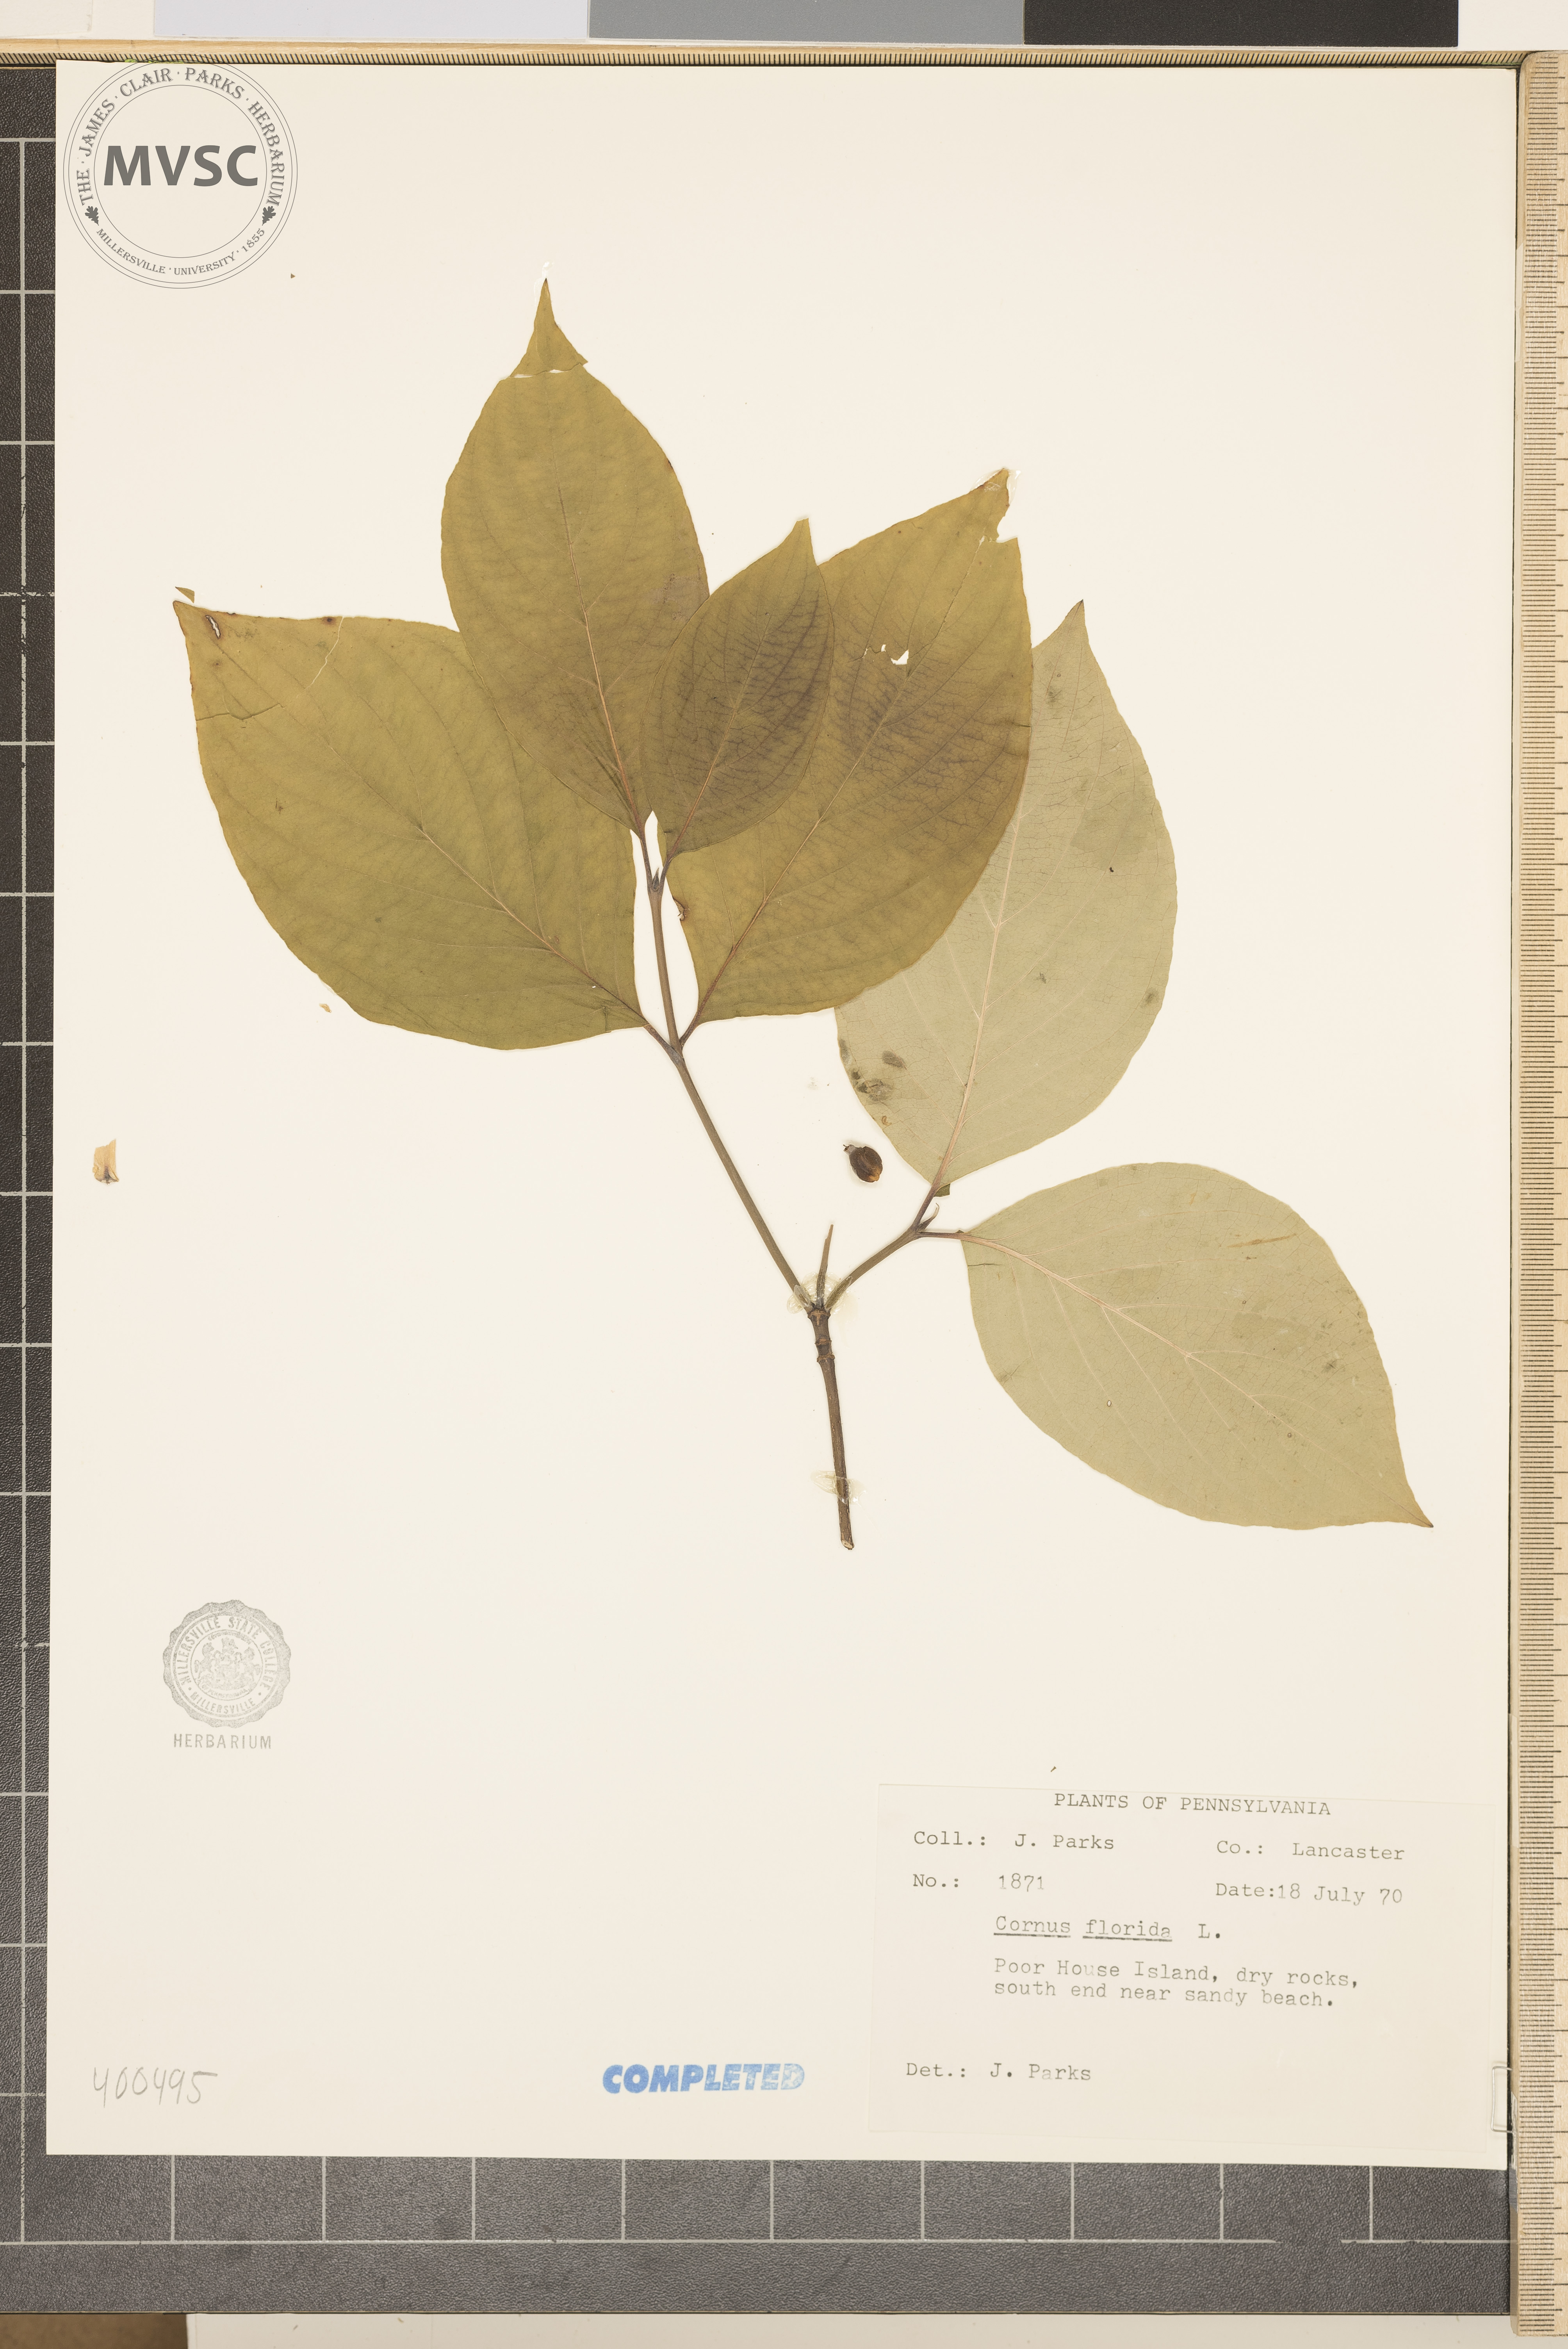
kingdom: Plantae
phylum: Tracheophyta
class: Magnoliopsida
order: Cornales
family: Cornaceae
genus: Cornus
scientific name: Cornus florida
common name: flowering dogwood
